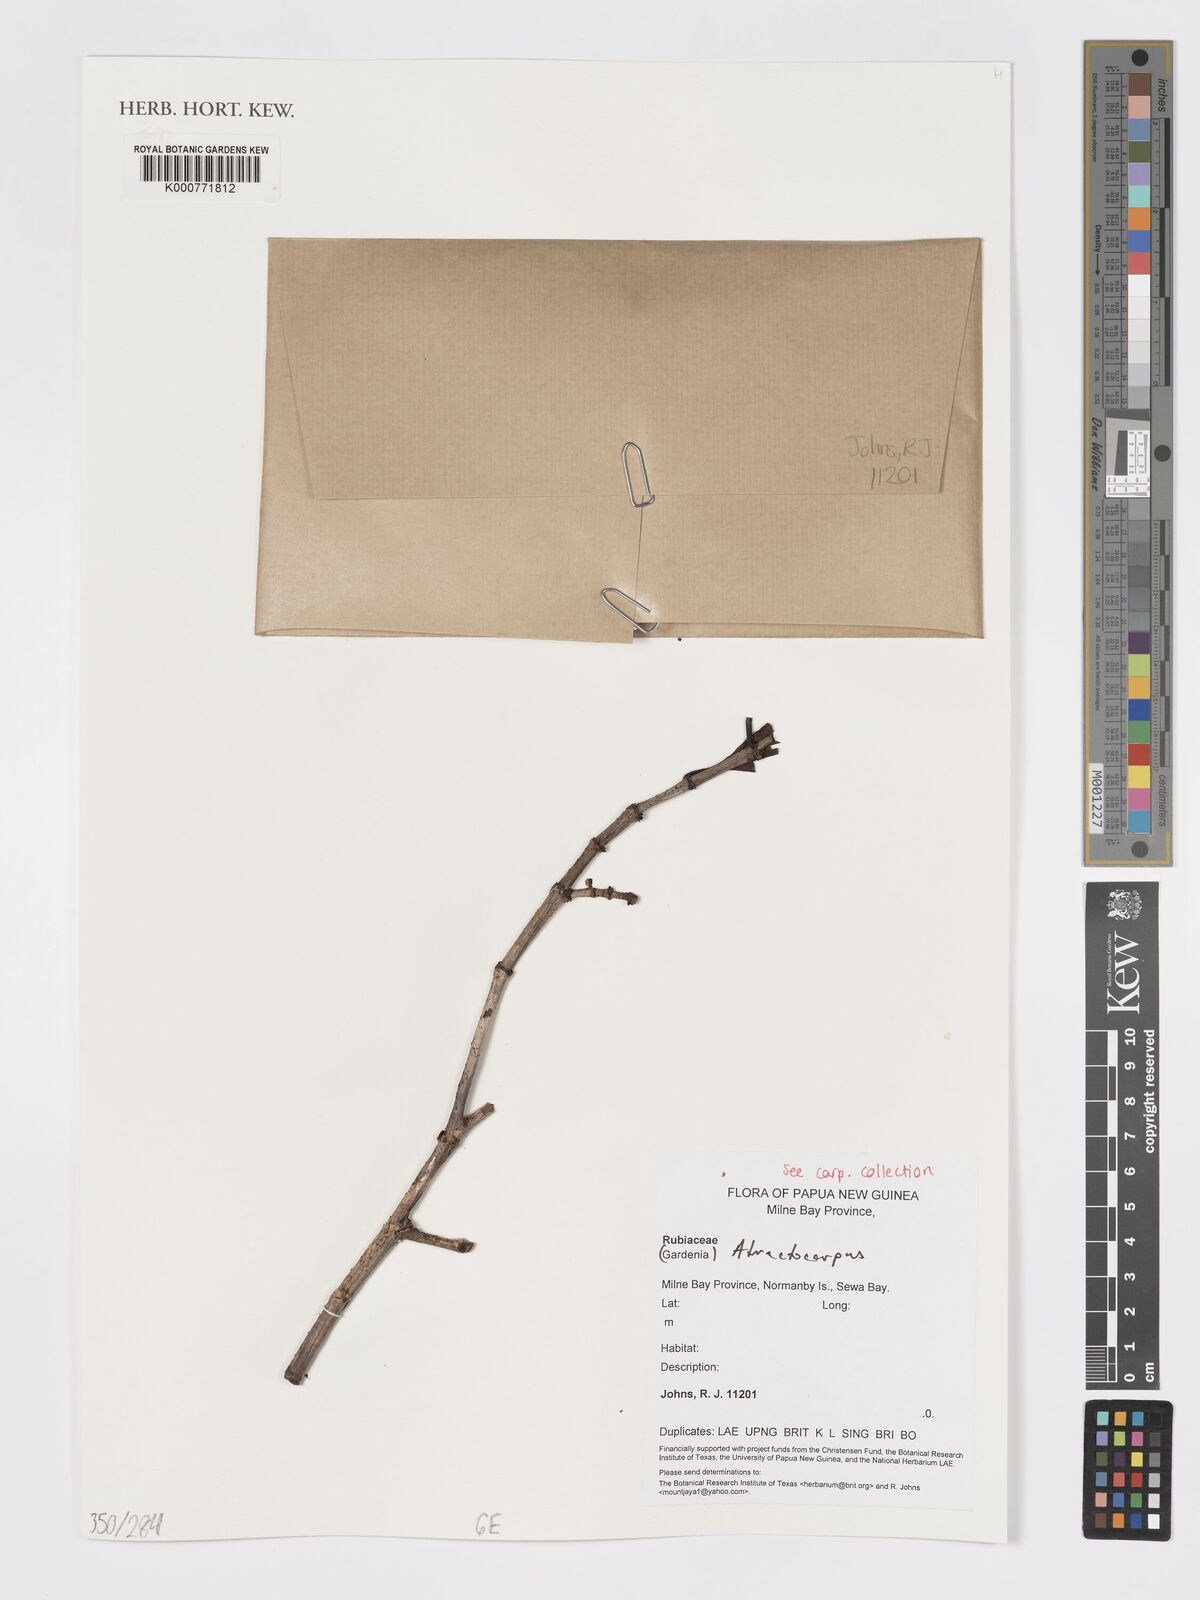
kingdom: Plantae
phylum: Tracheophyta
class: Magnoliopsida
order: Gentianales
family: Rubiaceae
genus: Atractocarpus
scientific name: Atractocarpus
